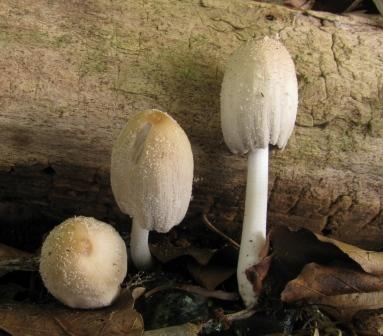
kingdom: Fungi
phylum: Basidiomycota
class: Agaricomycetes
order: Agaricales
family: Psathyrellaceae
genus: Coprinellus
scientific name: Coprinellus radians
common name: grynet blækhat
